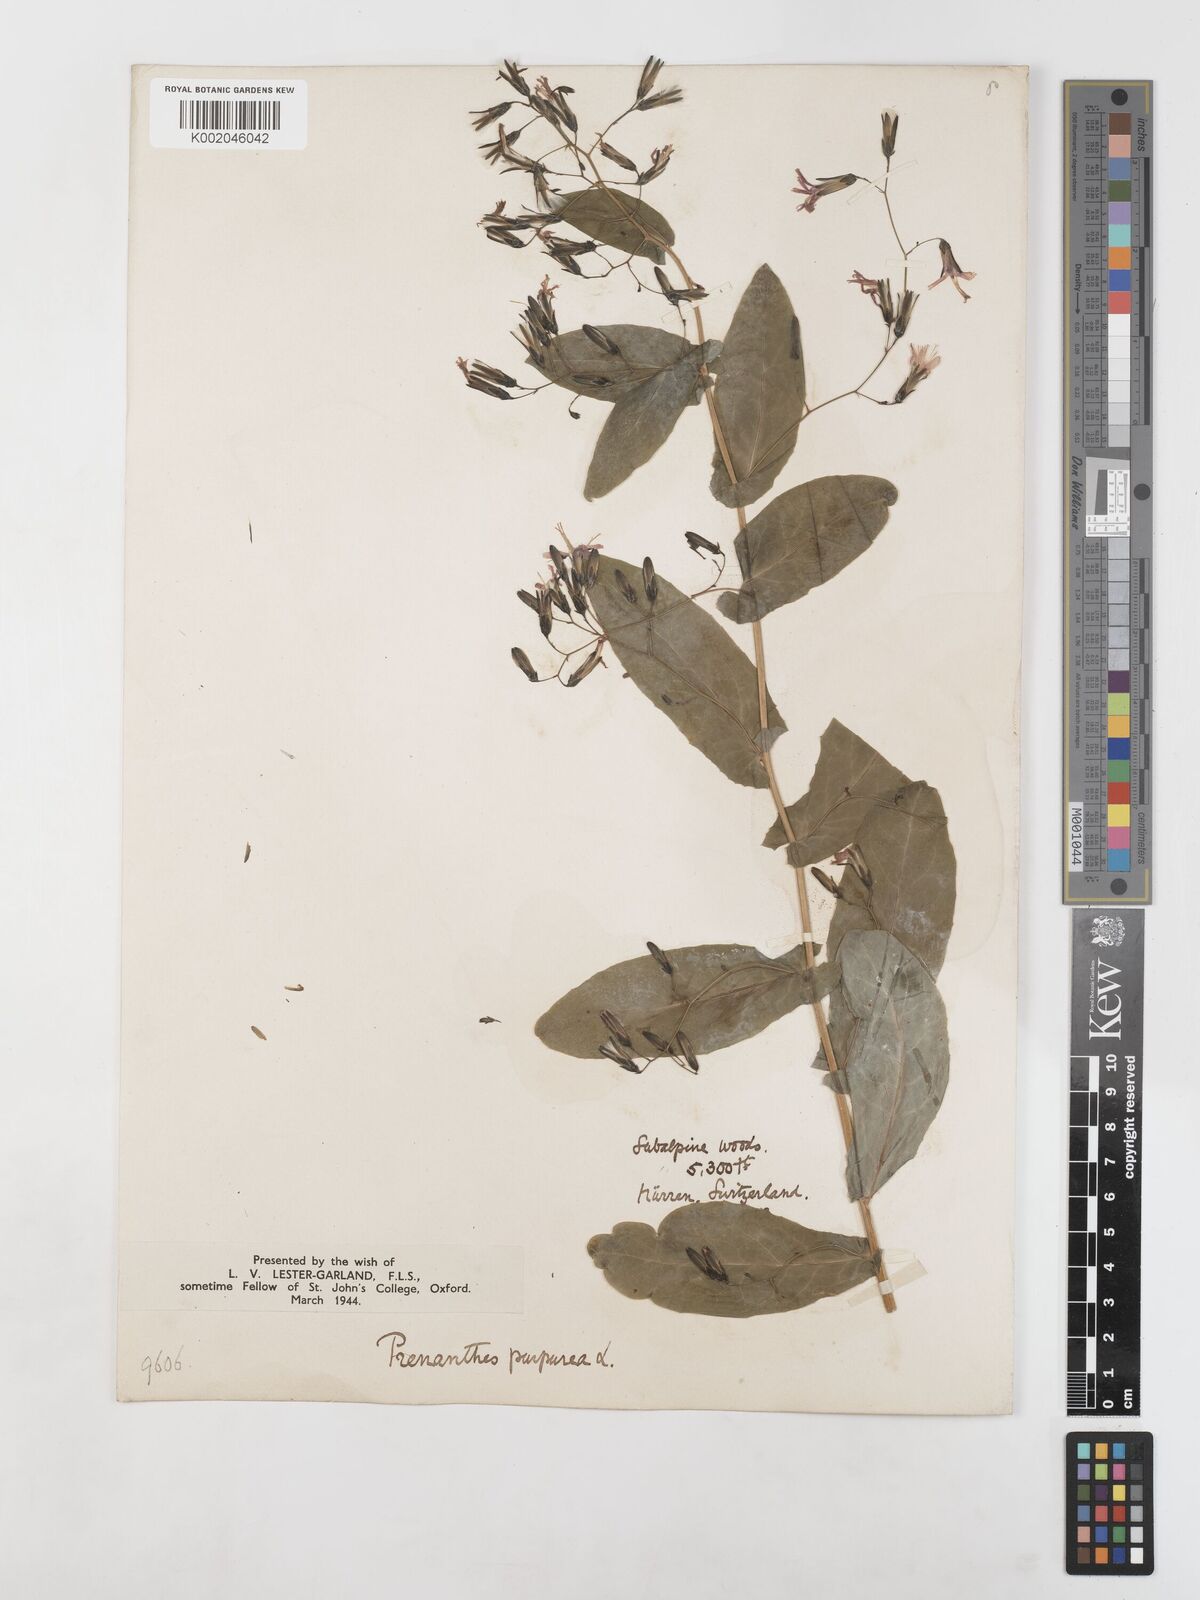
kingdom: Plantae
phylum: Tracheophyta
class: Magnoliopsida
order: Asterales
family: Asteraceae
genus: Prenanthes
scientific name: Prenanthes purpurea
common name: Purple lettuce
